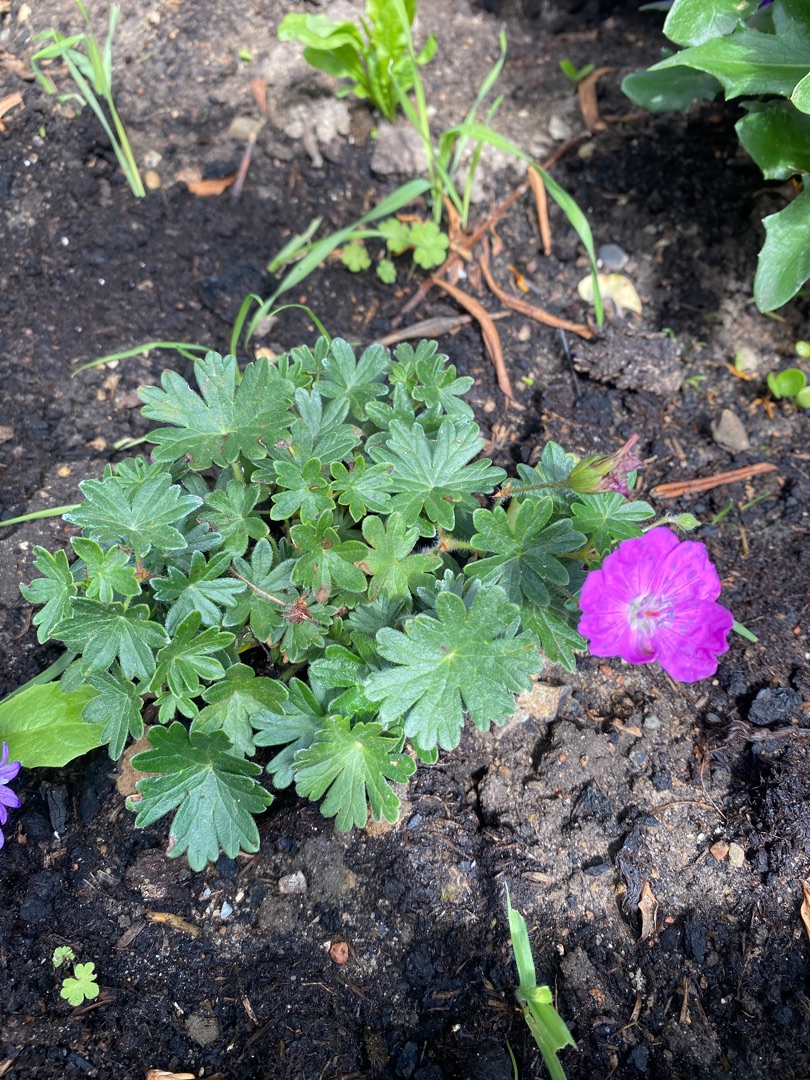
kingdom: Plantae
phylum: Tracheophyta
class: Magnoliopsida
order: Geraniales
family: Geraniaceae
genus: Geranium
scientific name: Geranium sanguineum
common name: Blodrød storkenæb
